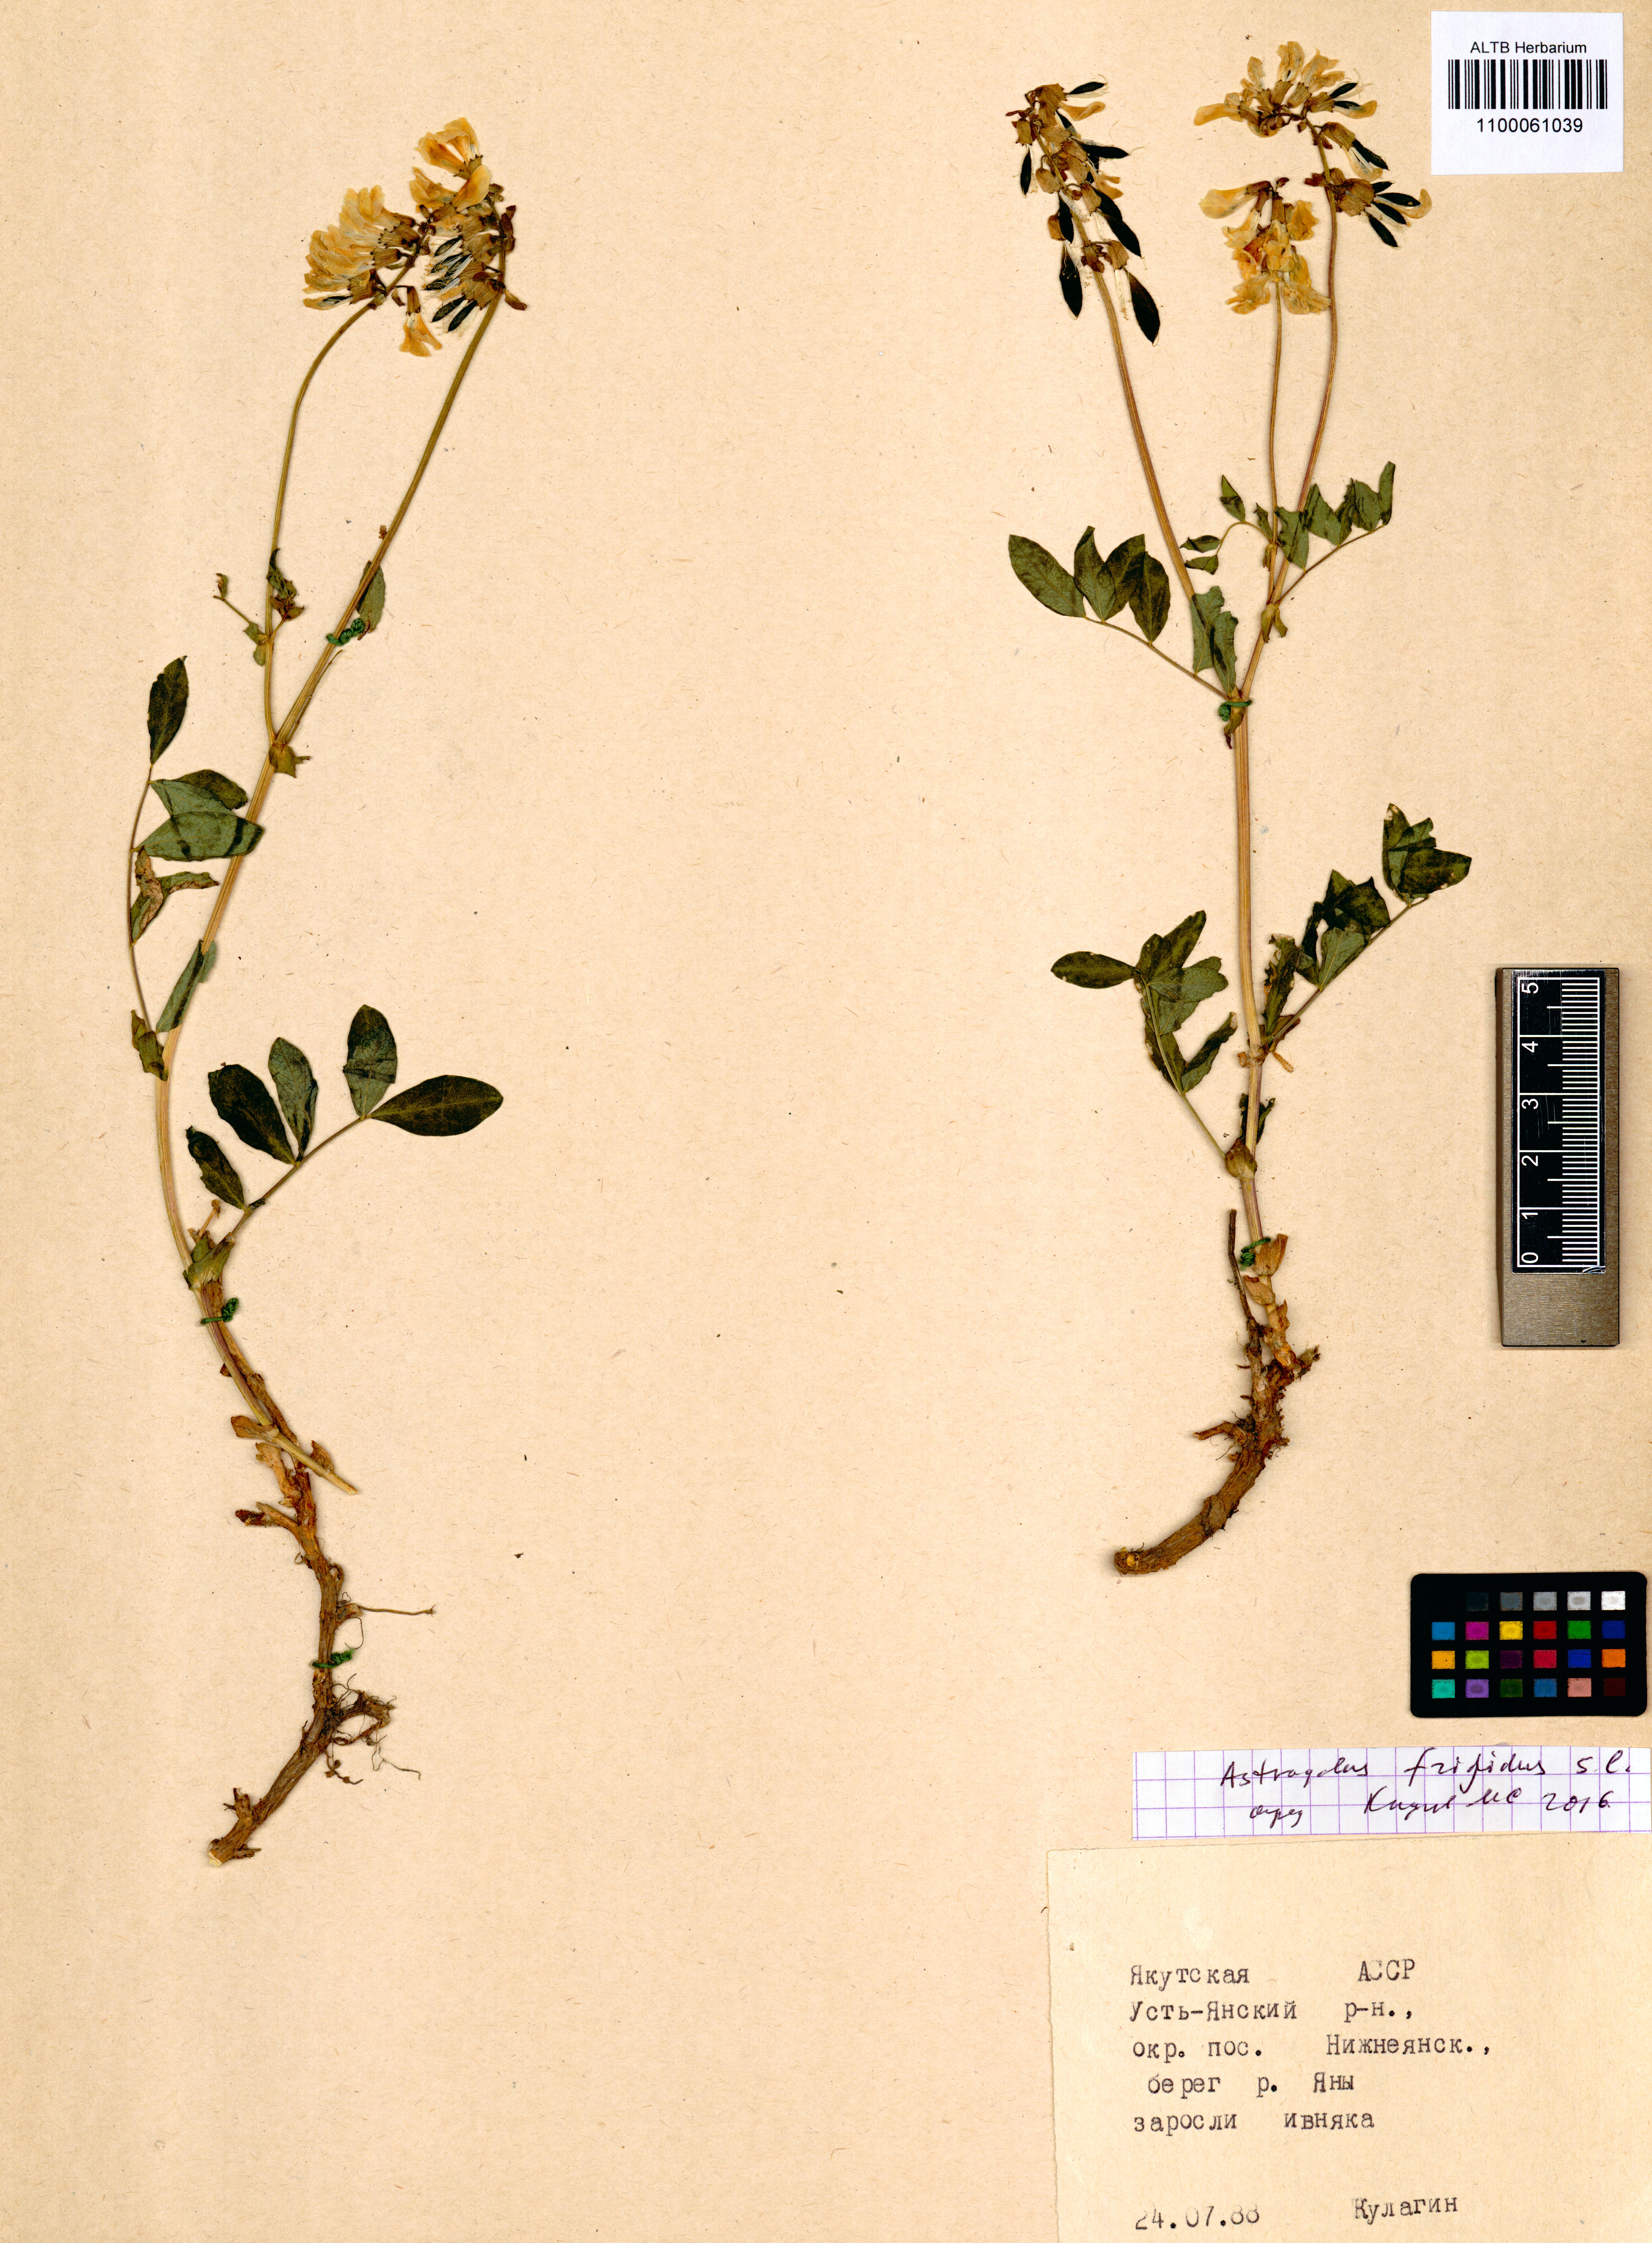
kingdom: Plantae
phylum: Tracheophyta
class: Magnoliopsida
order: Fabales
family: Fabaceae
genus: Astragalus
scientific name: Astragalus frigidus
